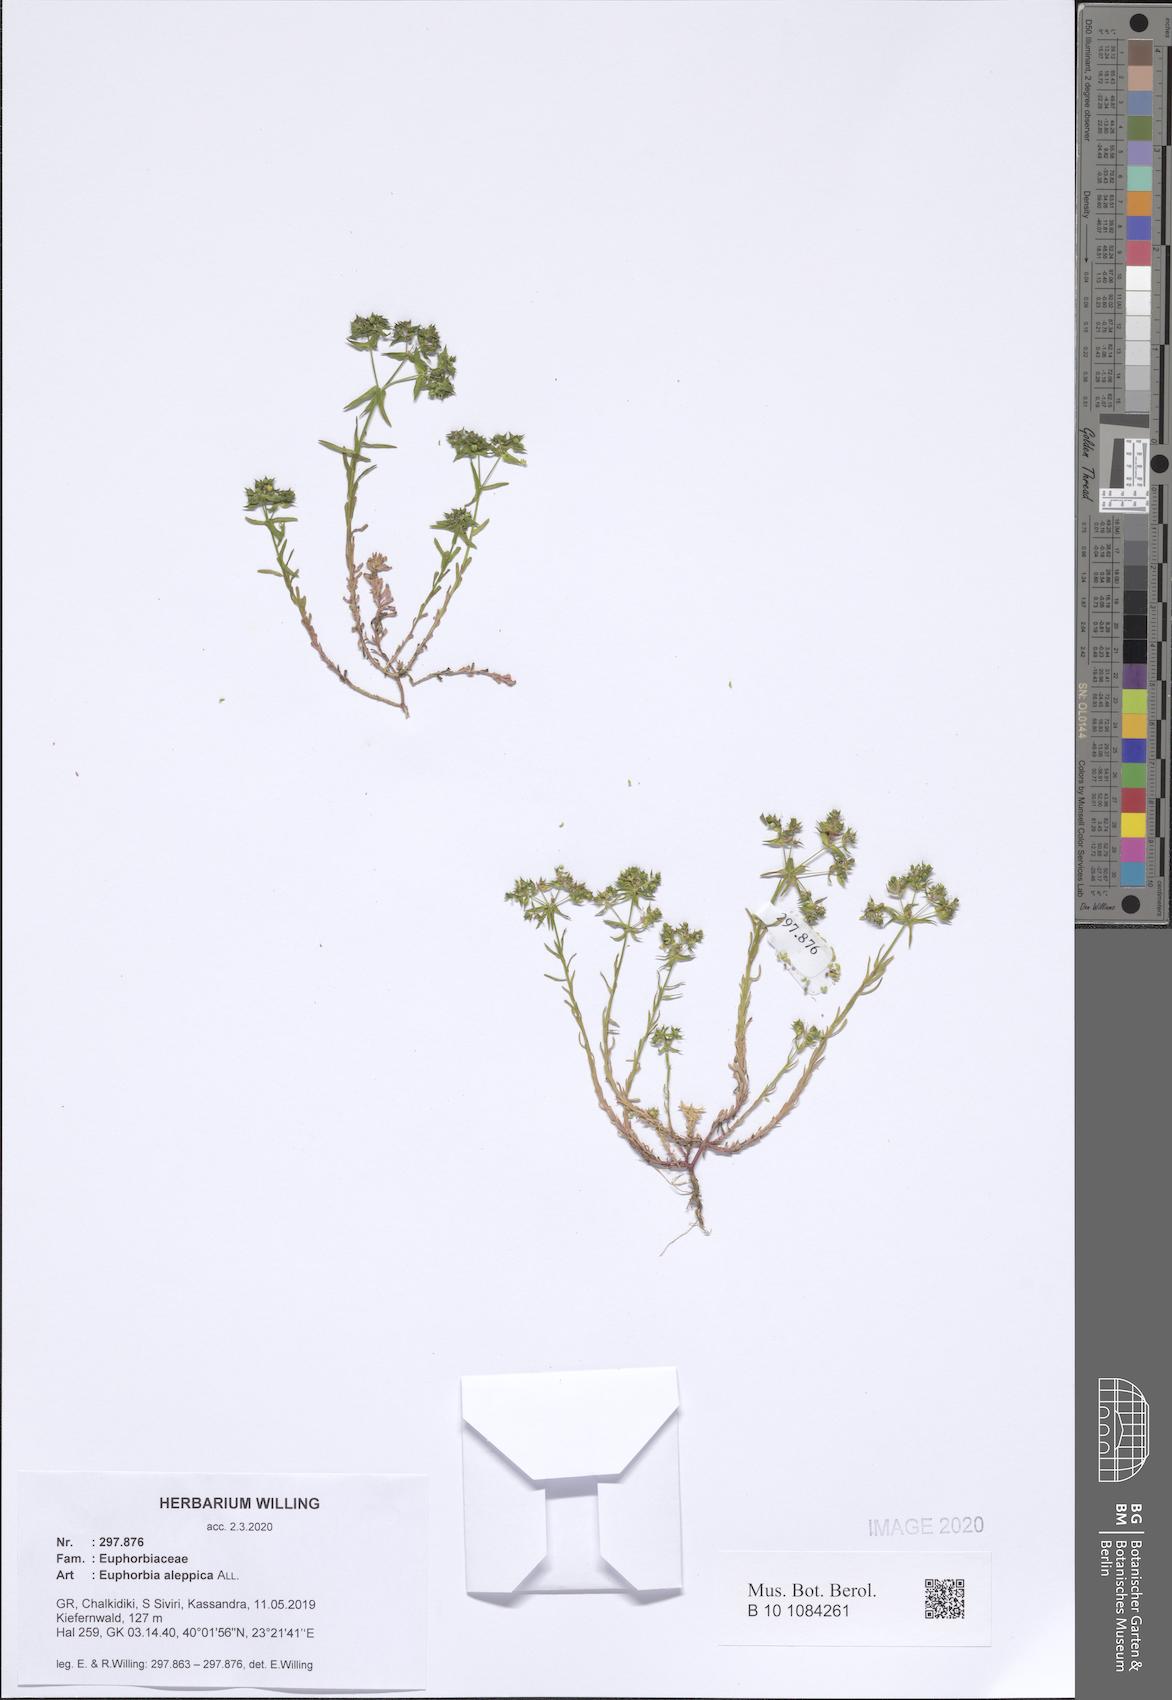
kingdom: Plantae
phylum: Tracheophyta
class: Magnoliopsida
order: Malpighiales
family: Euphorbiaceae
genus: Euphorbia
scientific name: Euphorbia aleppica
